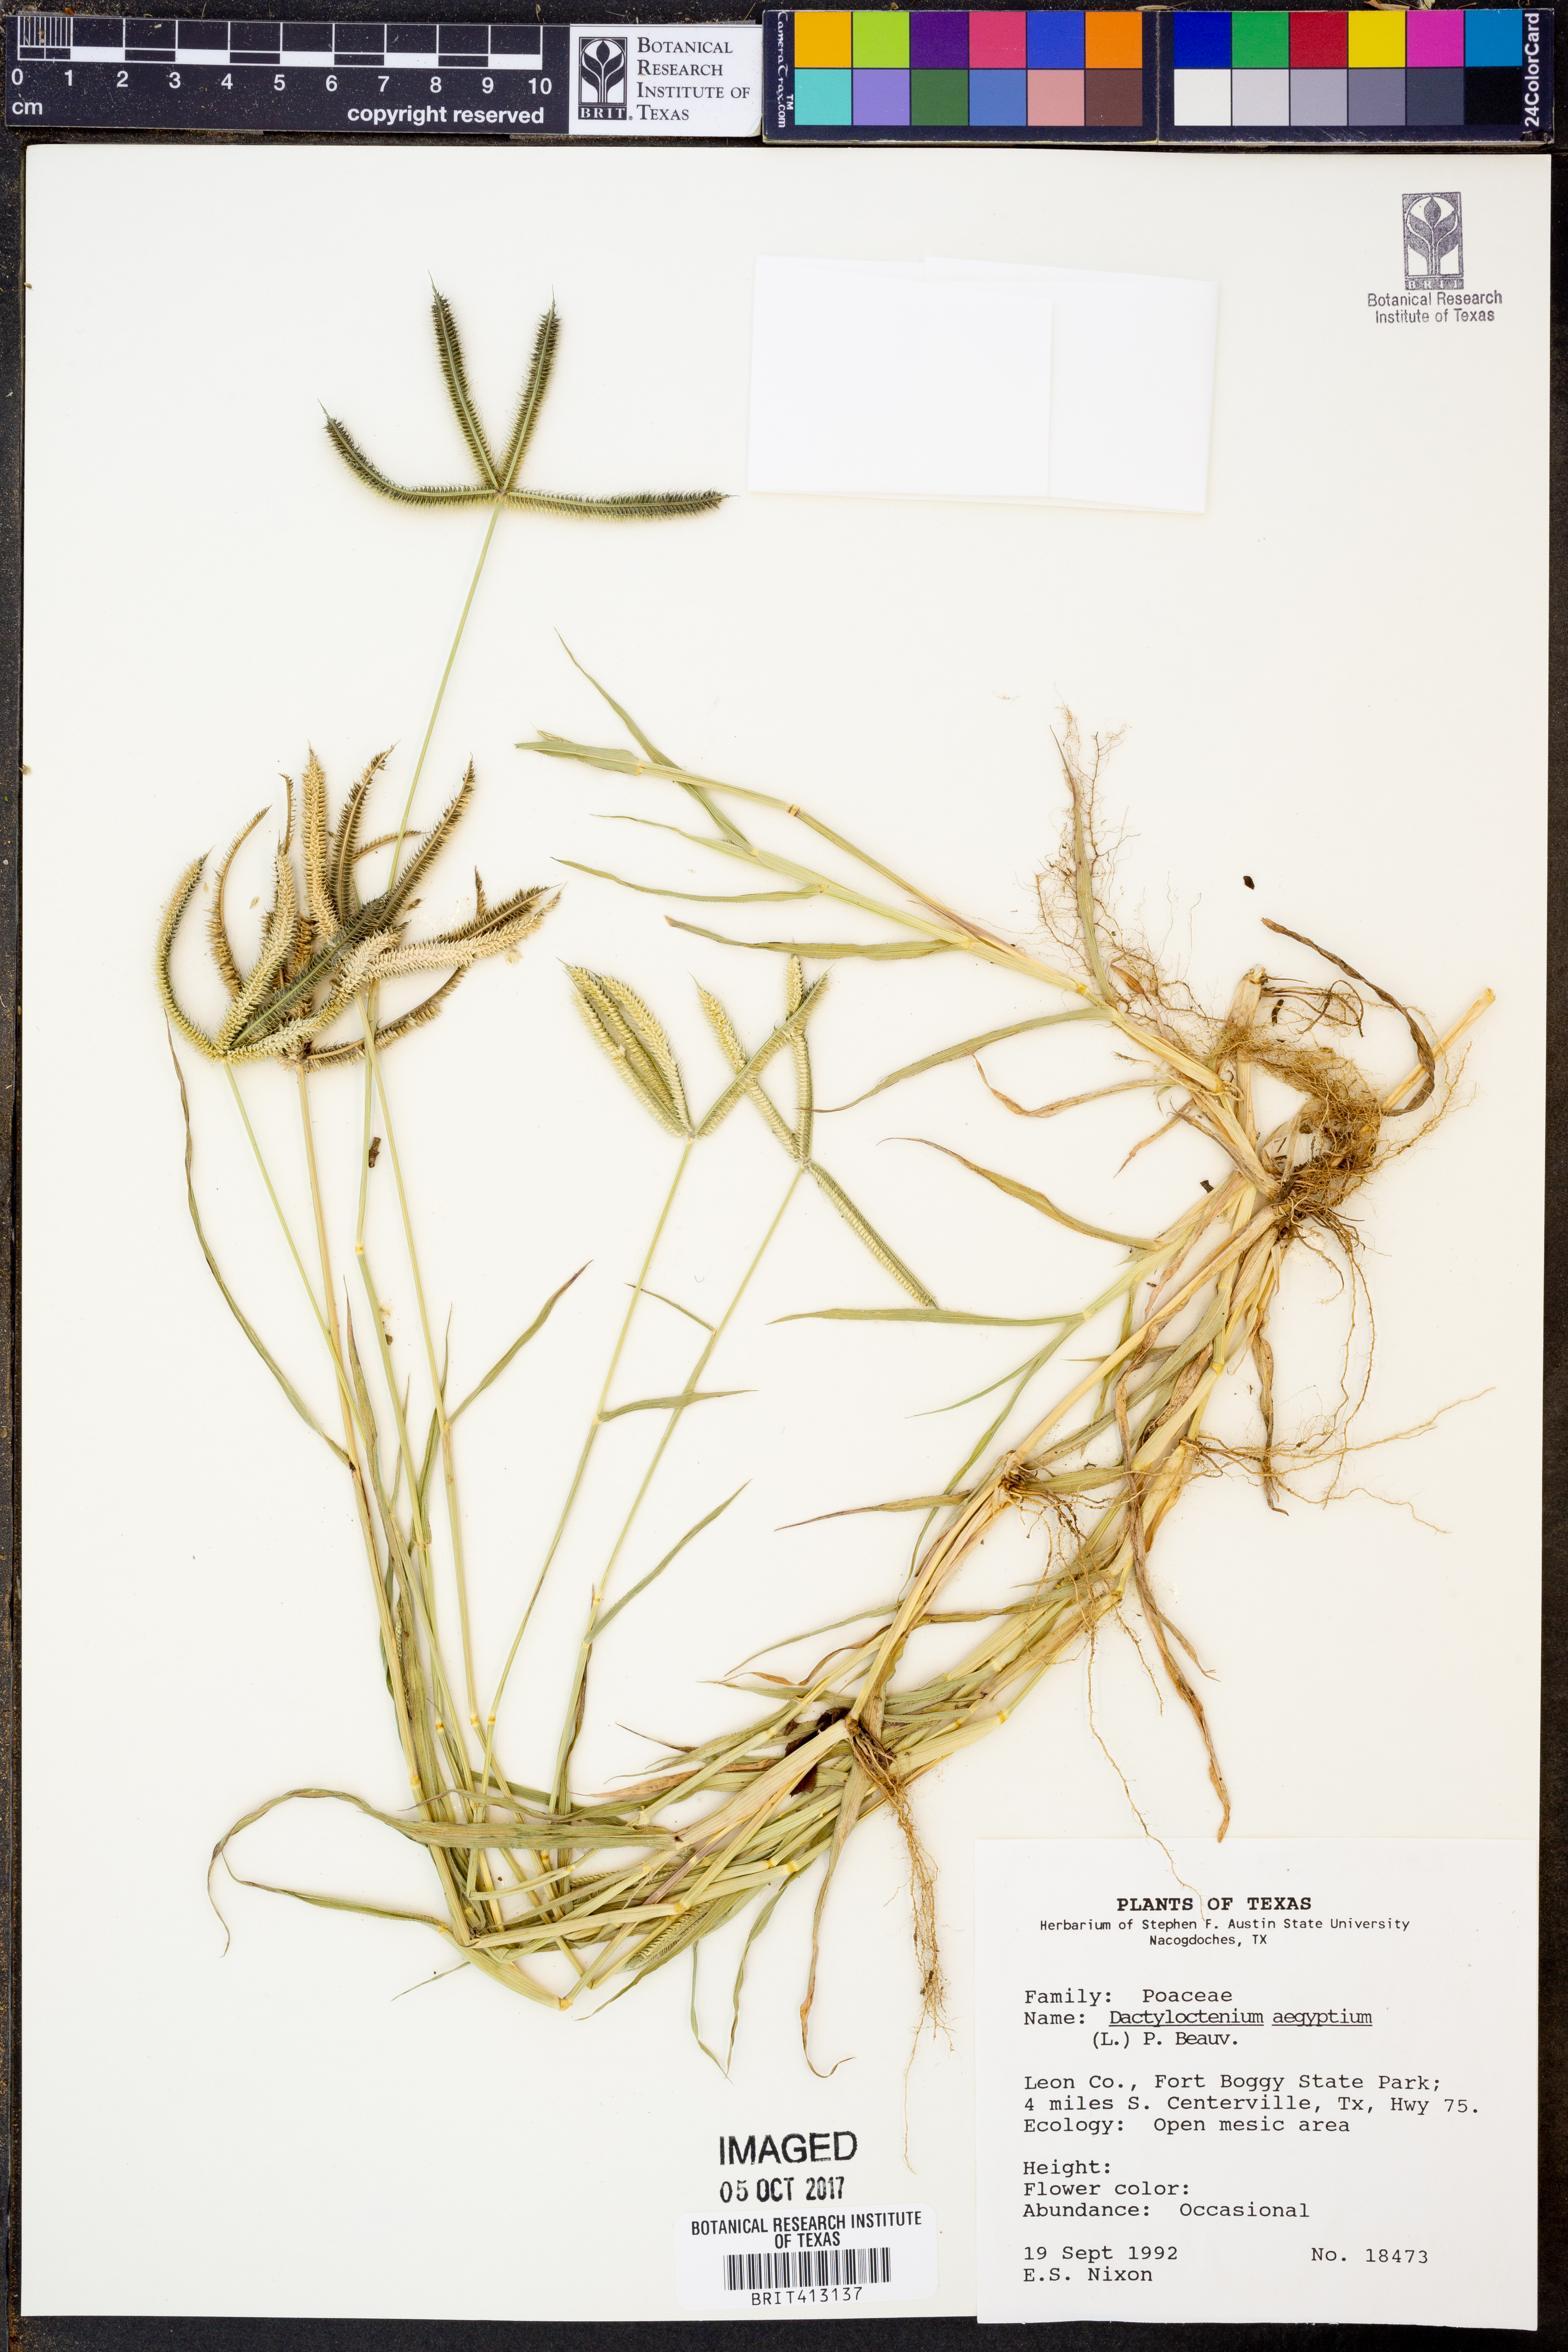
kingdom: Plantae
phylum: Tracheophyta
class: Liliopsida
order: Poales
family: Poaceae
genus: Dactyloctenium
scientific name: Dactyloctenium aegyptium
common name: Egyptian grass
